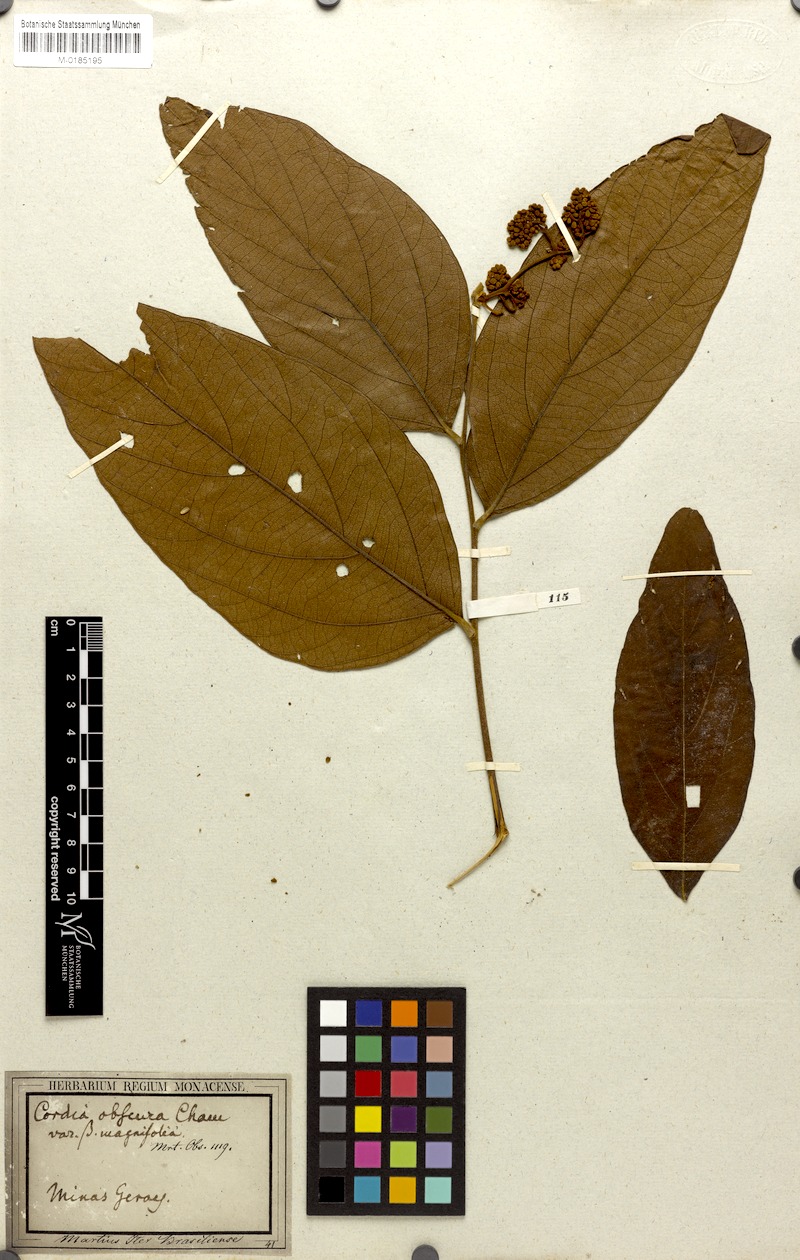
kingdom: Plantae
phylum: Tracheophyta
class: Magnoliopsida
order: Boraginales
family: Cordiaceae
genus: Cordia
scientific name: Cordia sellowiana
